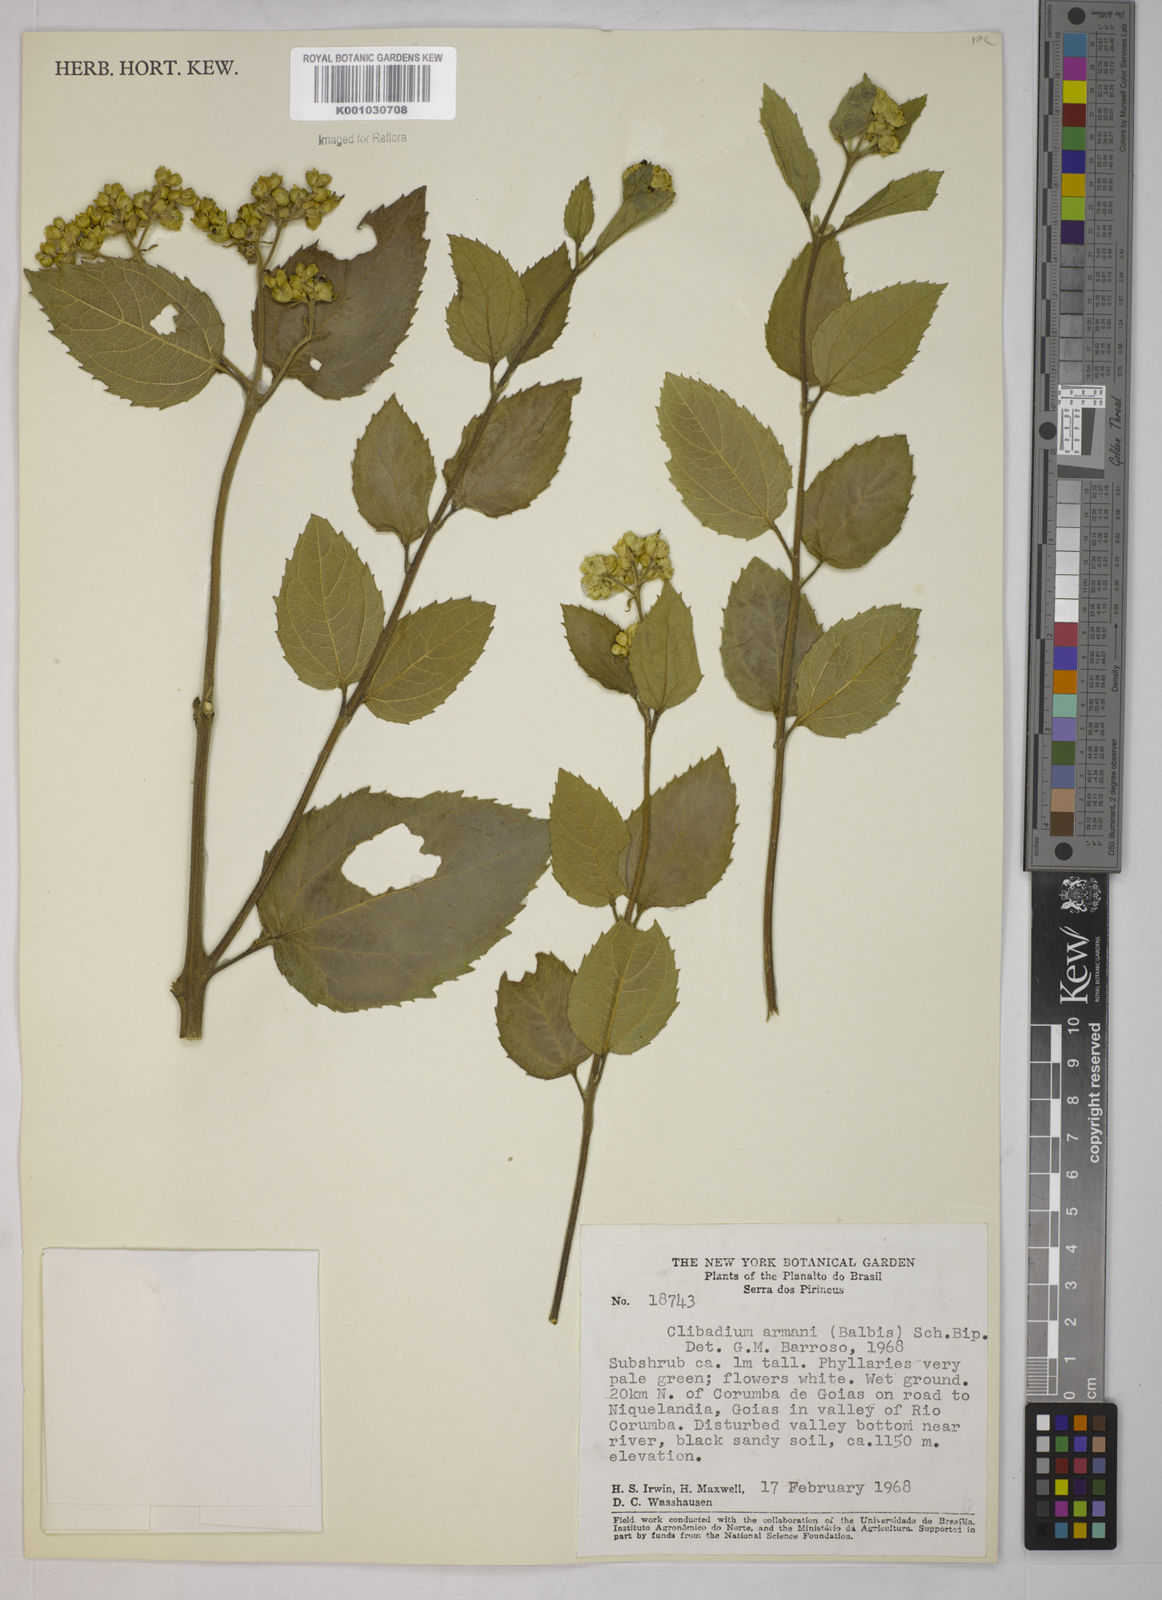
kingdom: Plantae
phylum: Tracheophyta
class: Magnoliopsida
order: Asterales
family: Asteraceae
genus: Clibadium
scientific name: Clibadium armanii
